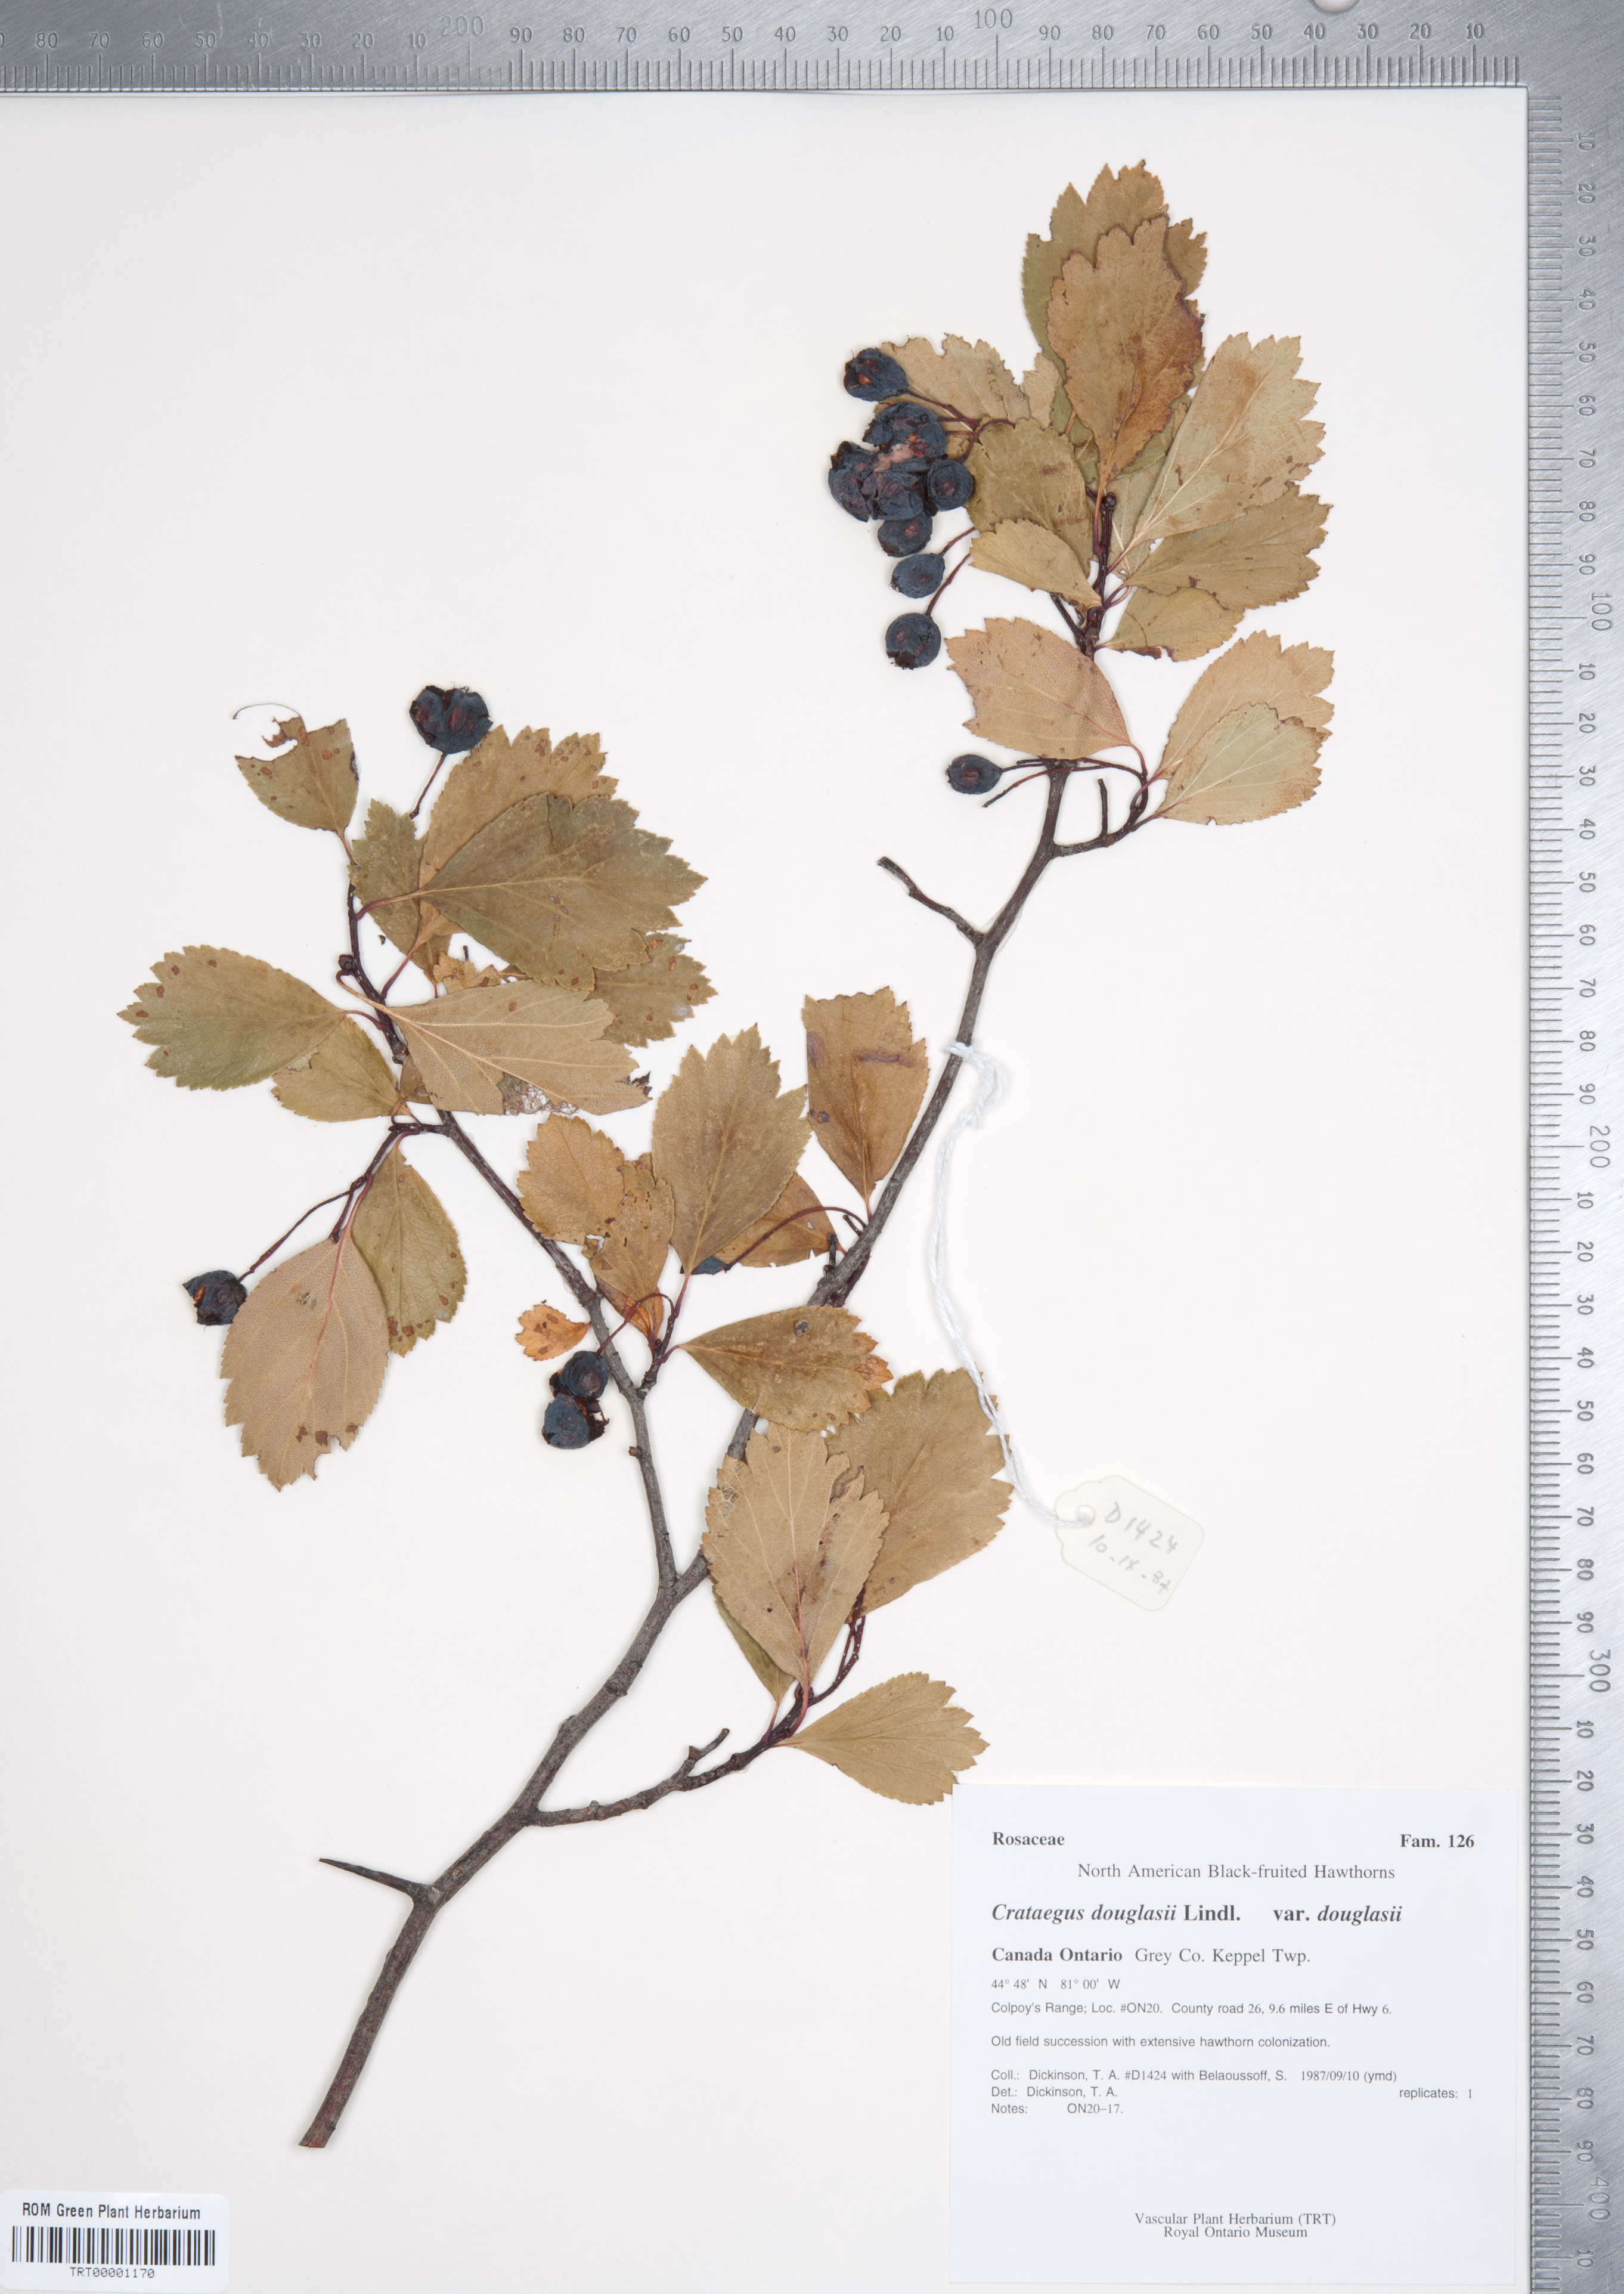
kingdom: Plantae
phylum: Tracheophyta
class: Magnoliopsida
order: Rosales
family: Rosaceae
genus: Crataegus
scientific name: Crataegus douglasii
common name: Black hawthorn
